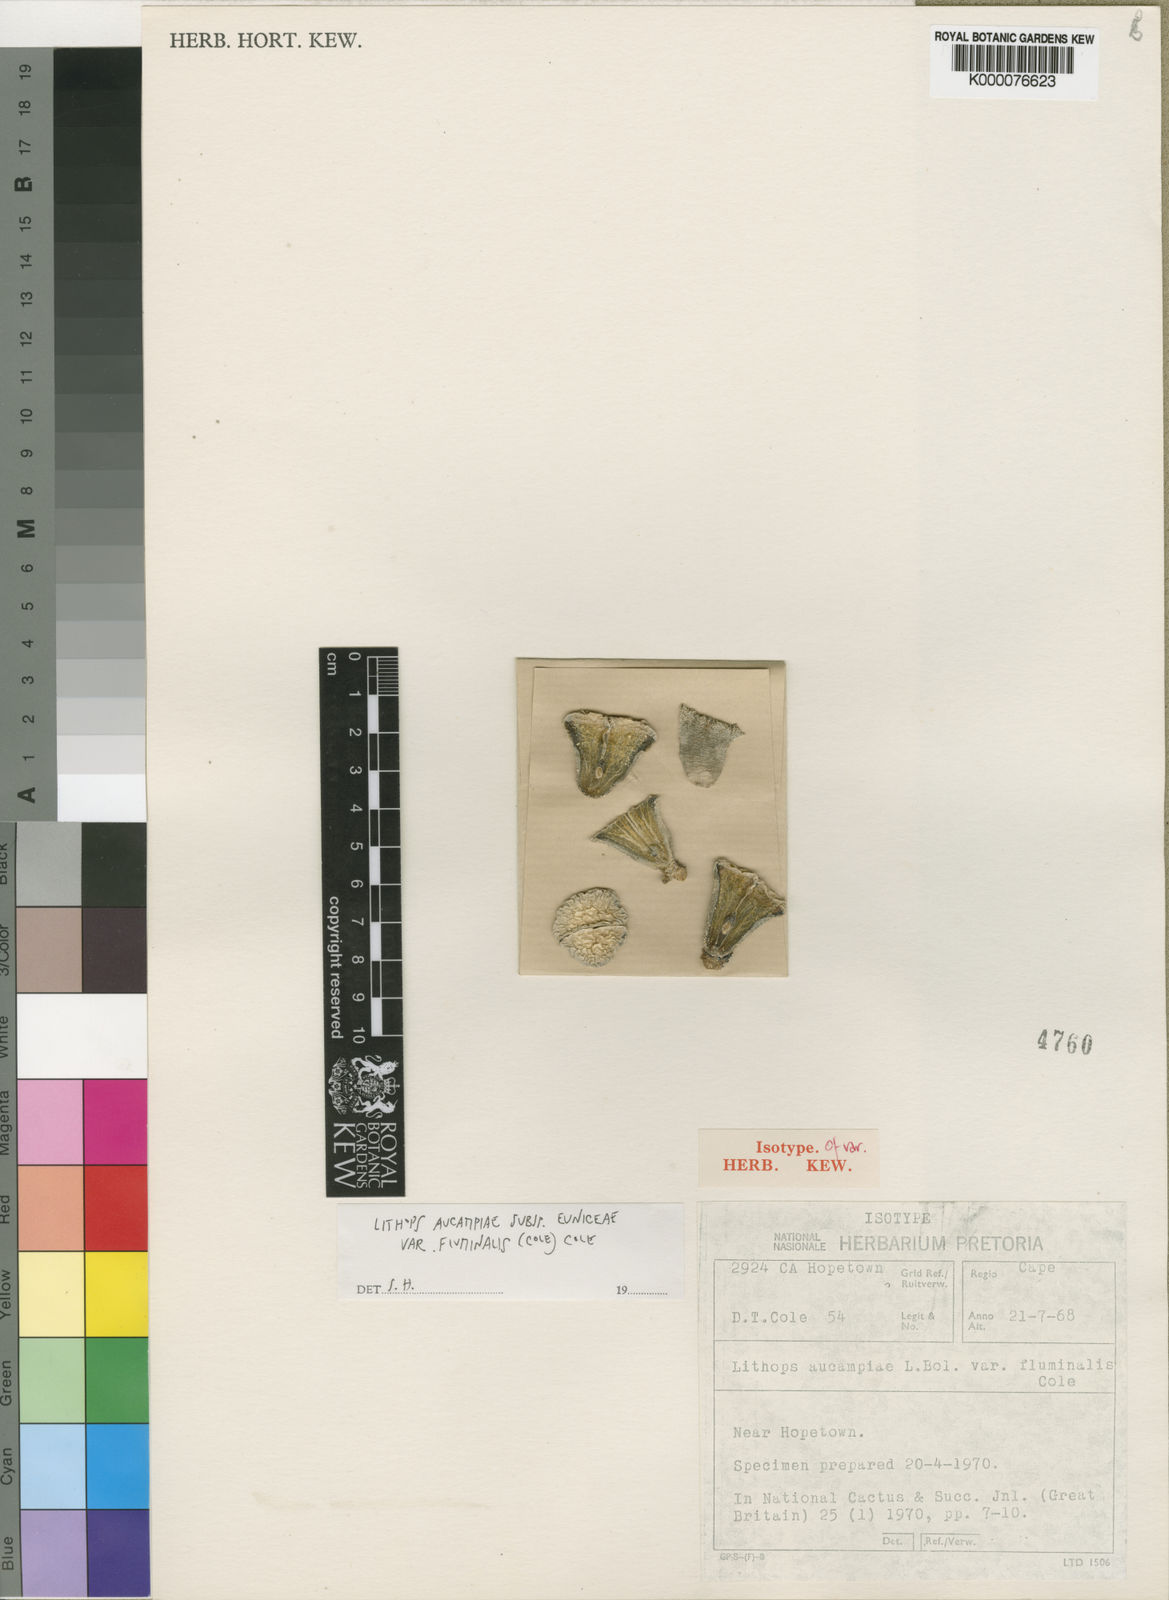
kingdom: Plantae
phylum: Tracheophyta
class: Magnoliopsida
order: Caryophyllales
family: Aizoaceae
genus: Lithops
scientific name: Lithops aucampiae
